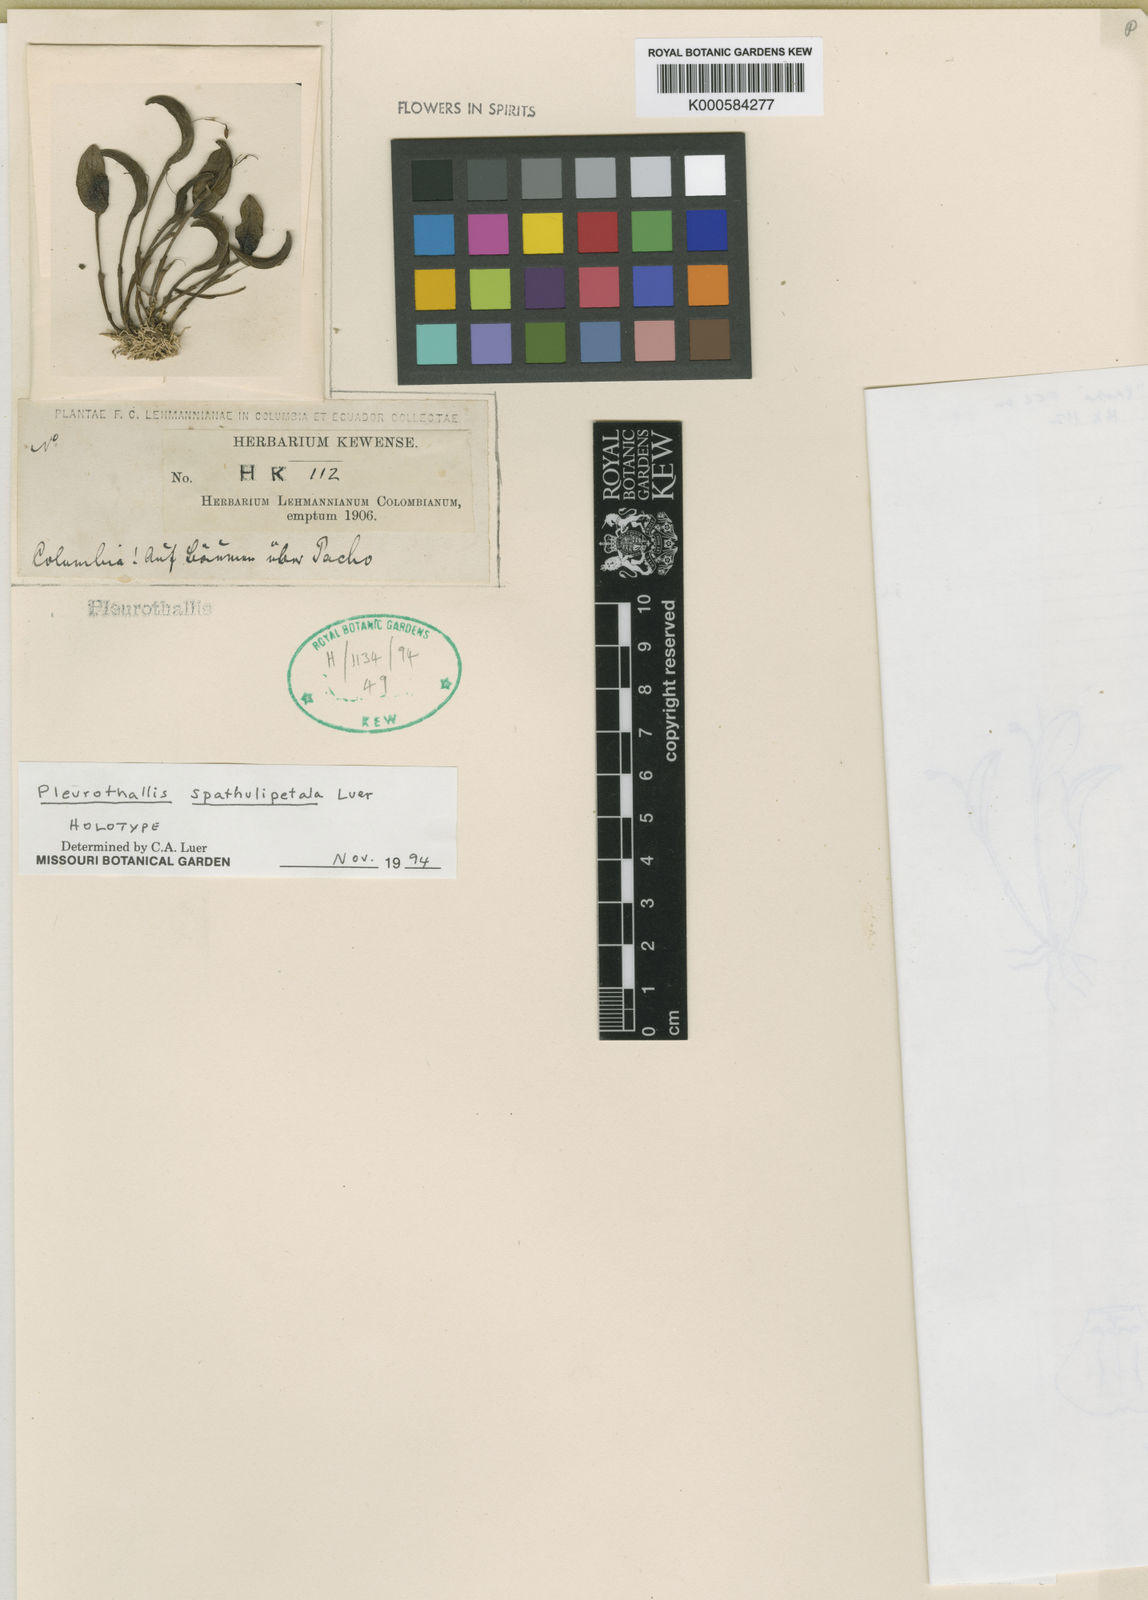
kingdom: Plantae
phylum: Tracheophyta
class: Liliopsida
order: Asparagales
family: Orchidaceae
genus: Pleurothallis
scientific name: Pleurothallis spathulipetala
